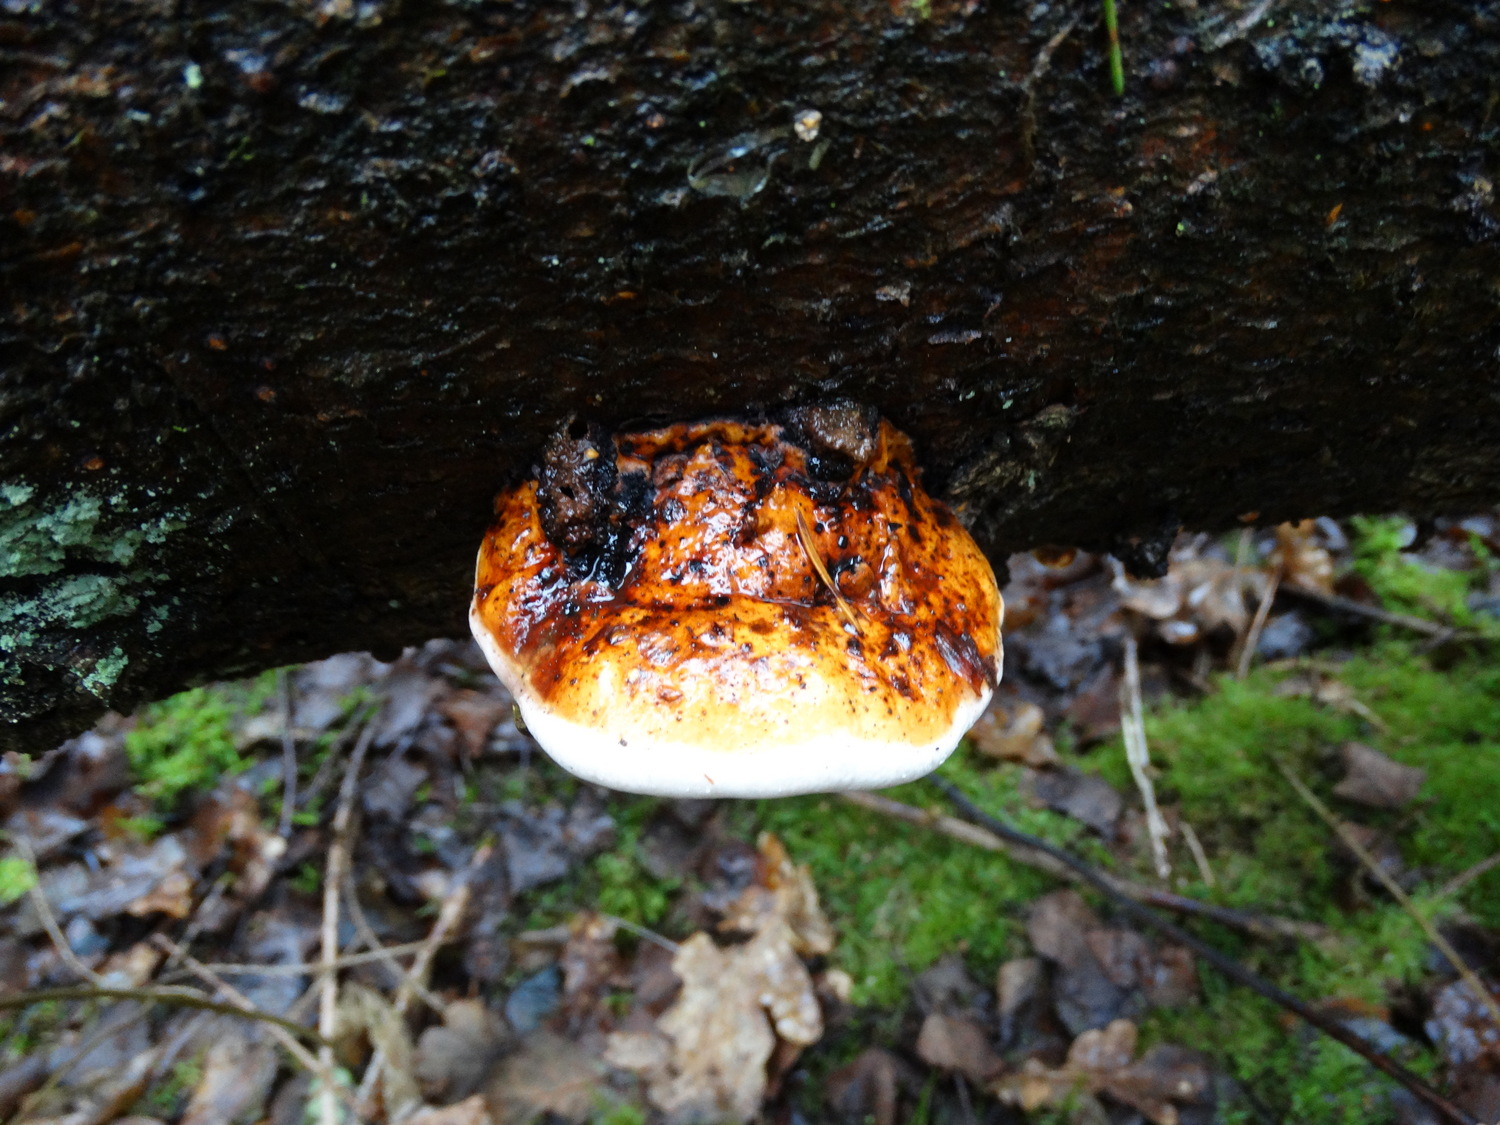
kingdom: Fungi
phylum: Basidiomycota
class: Agaricomycetes
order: Polyporales
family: Fomitopsidaceae
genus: Fomitopsis
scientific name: Fomitopsis pinicola
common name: randbæltet hovporesvamp
